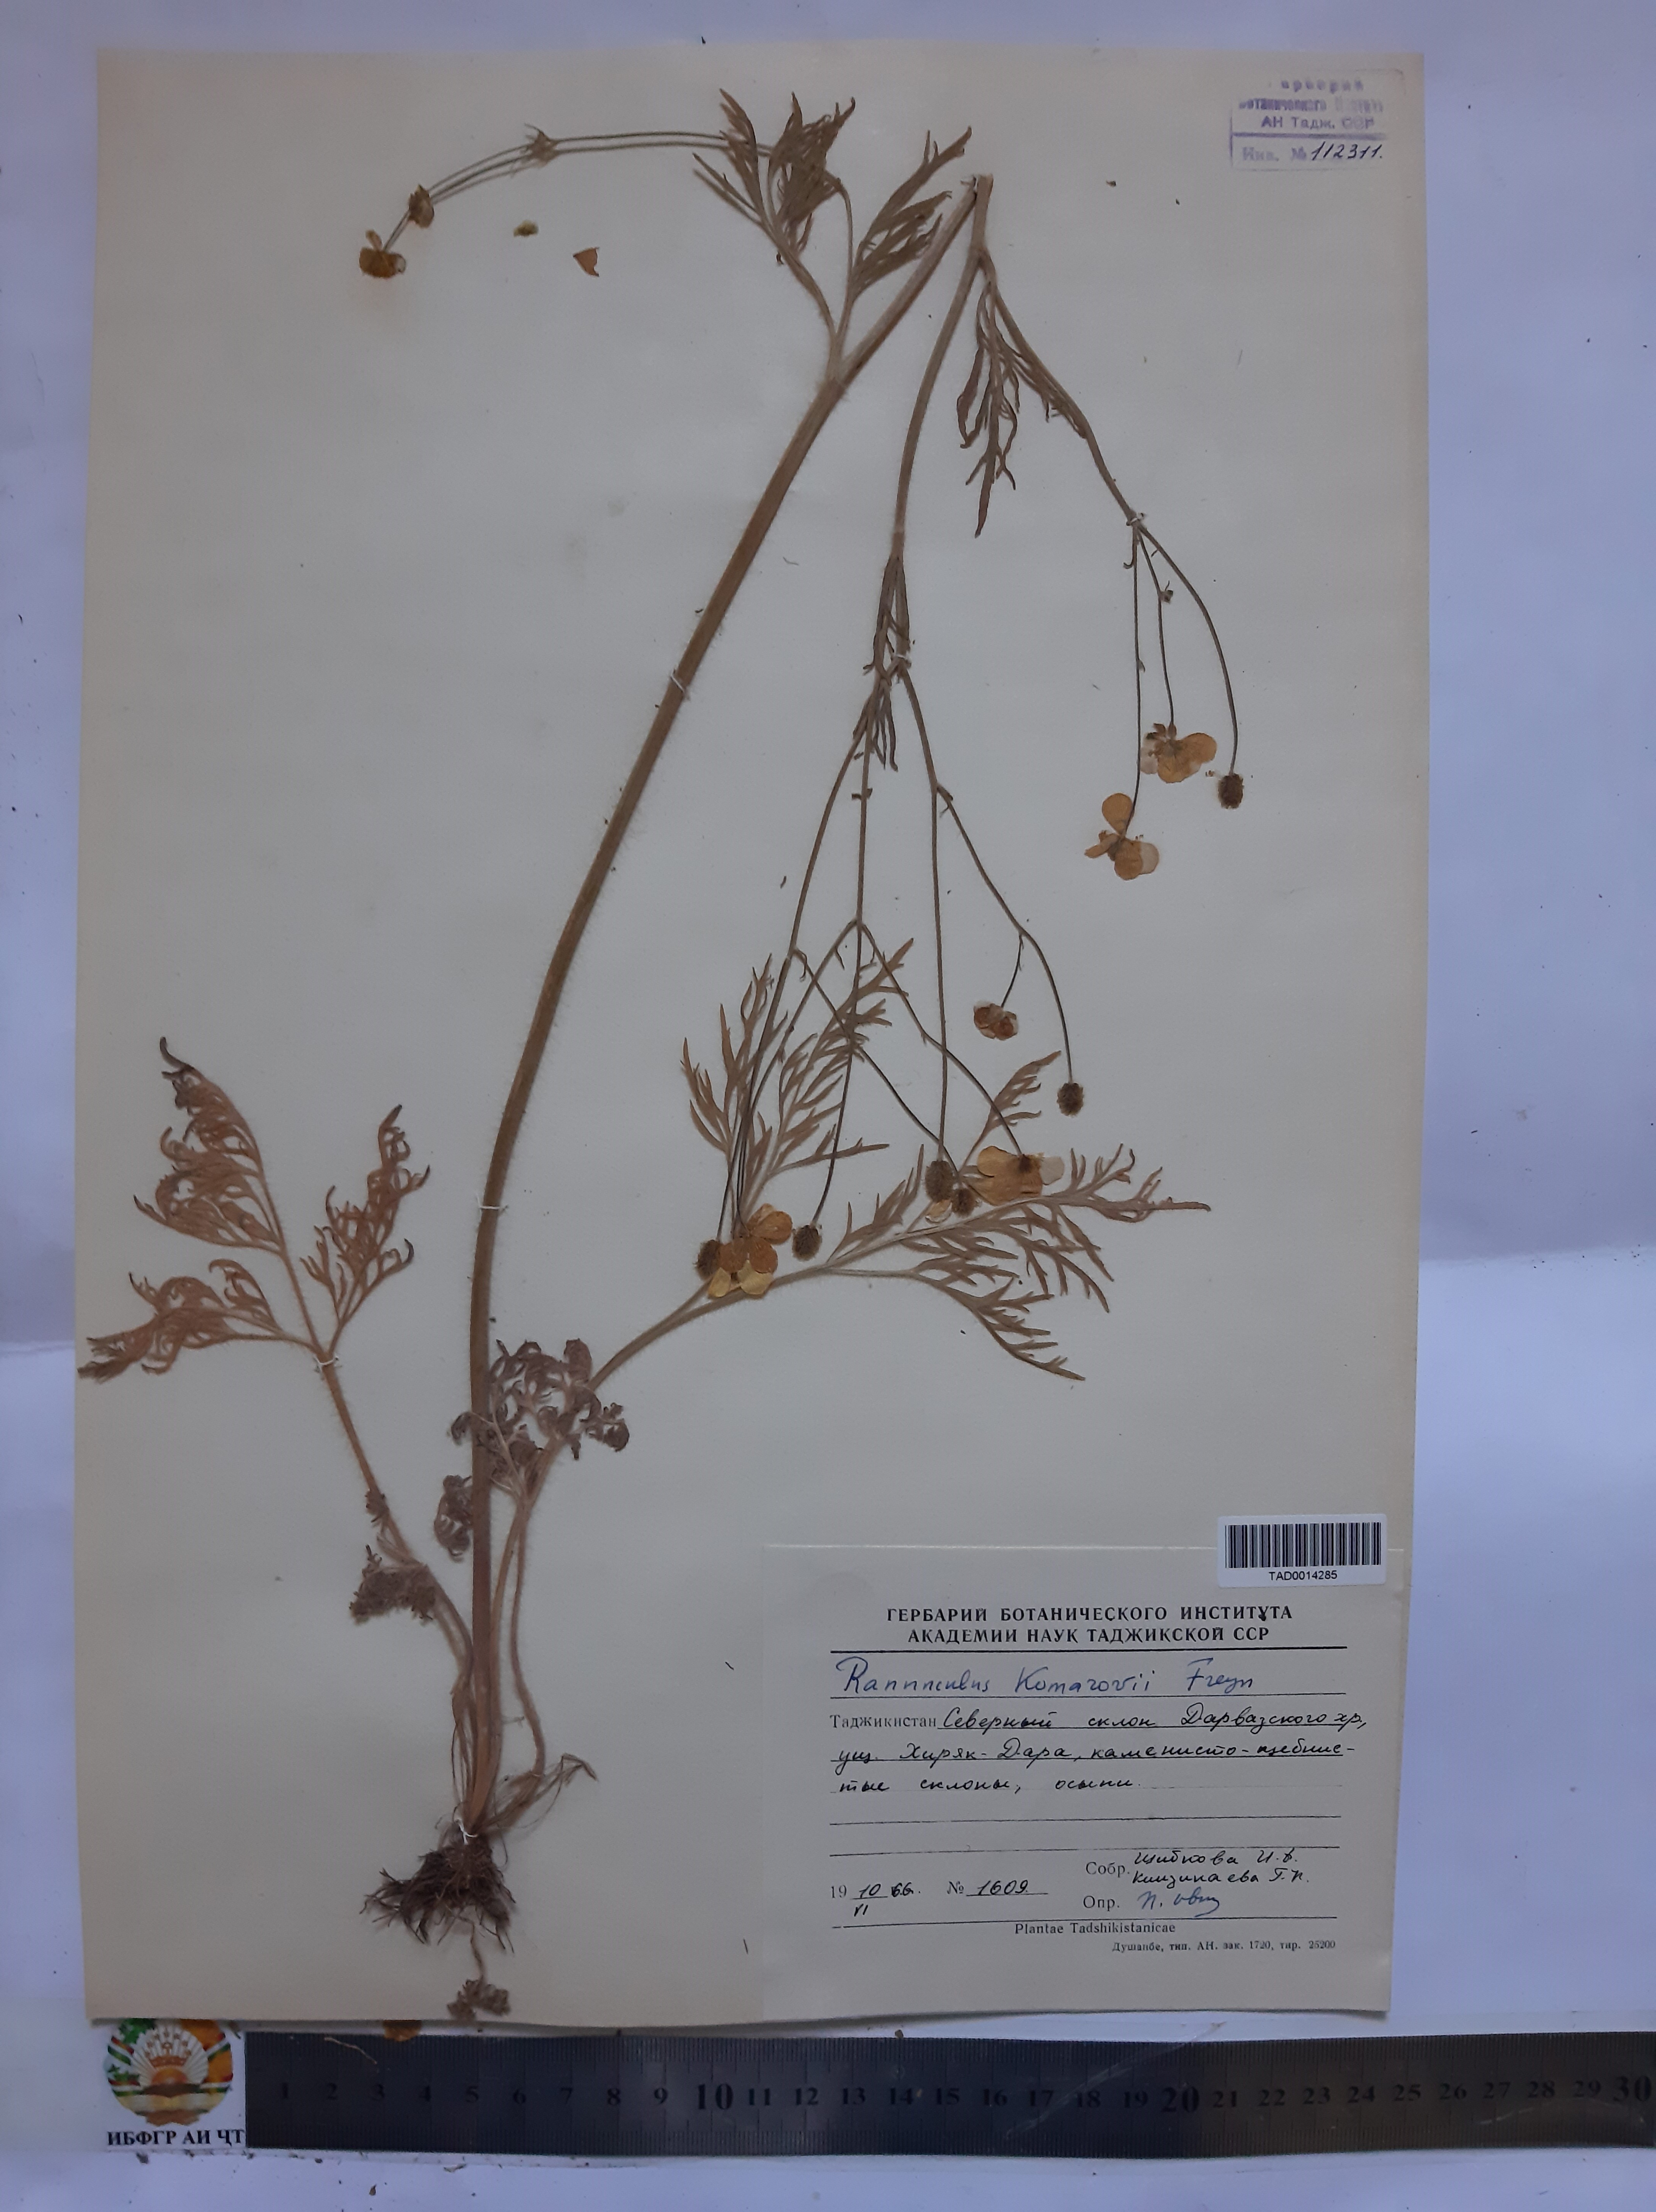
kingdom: Plantae
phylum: Tracheophyta
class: Magnoliopsida
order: Ranunculales
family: Ranunculaceae
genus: Ranunculus
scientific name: Ranunculus komarovii
